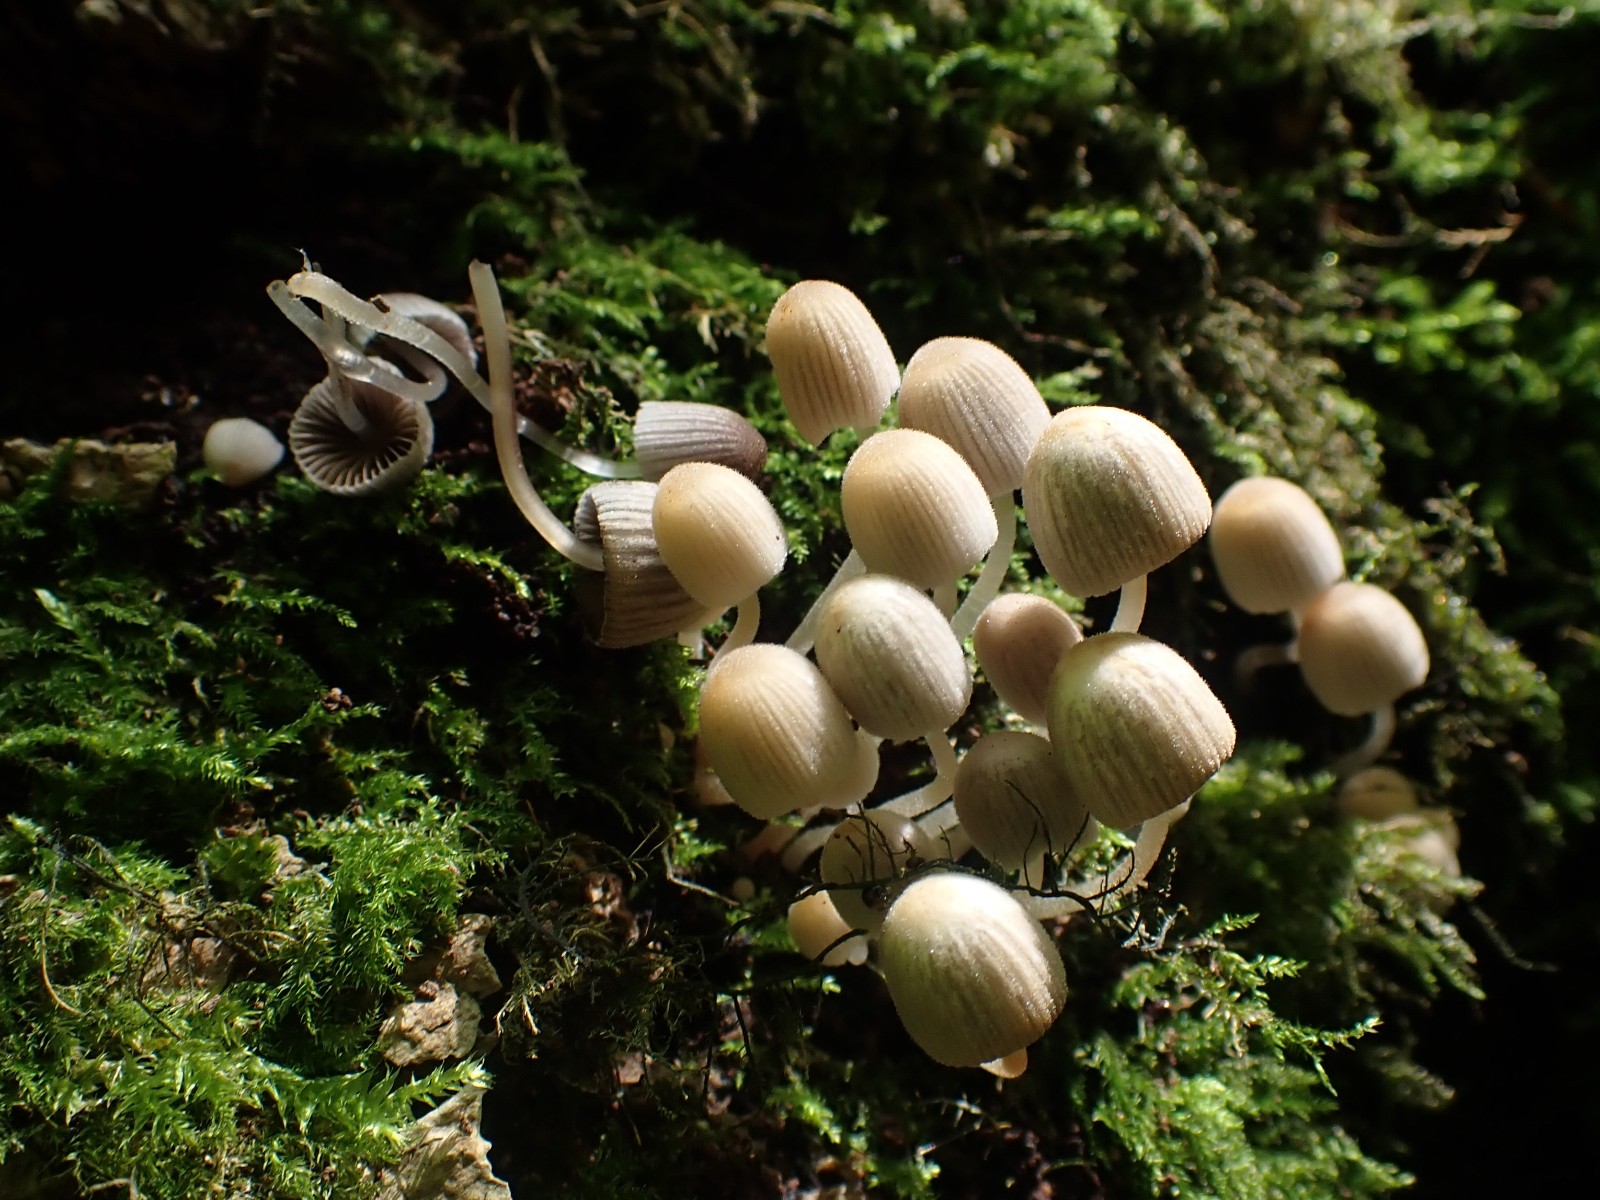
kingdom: Fungi
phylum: Basidiomycota
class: Agaricomycetes
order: Agaricales
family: Psathyrellaceae
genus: Coprinellus
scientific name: Coprinellus disseminatus
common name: bredsået blækhat
